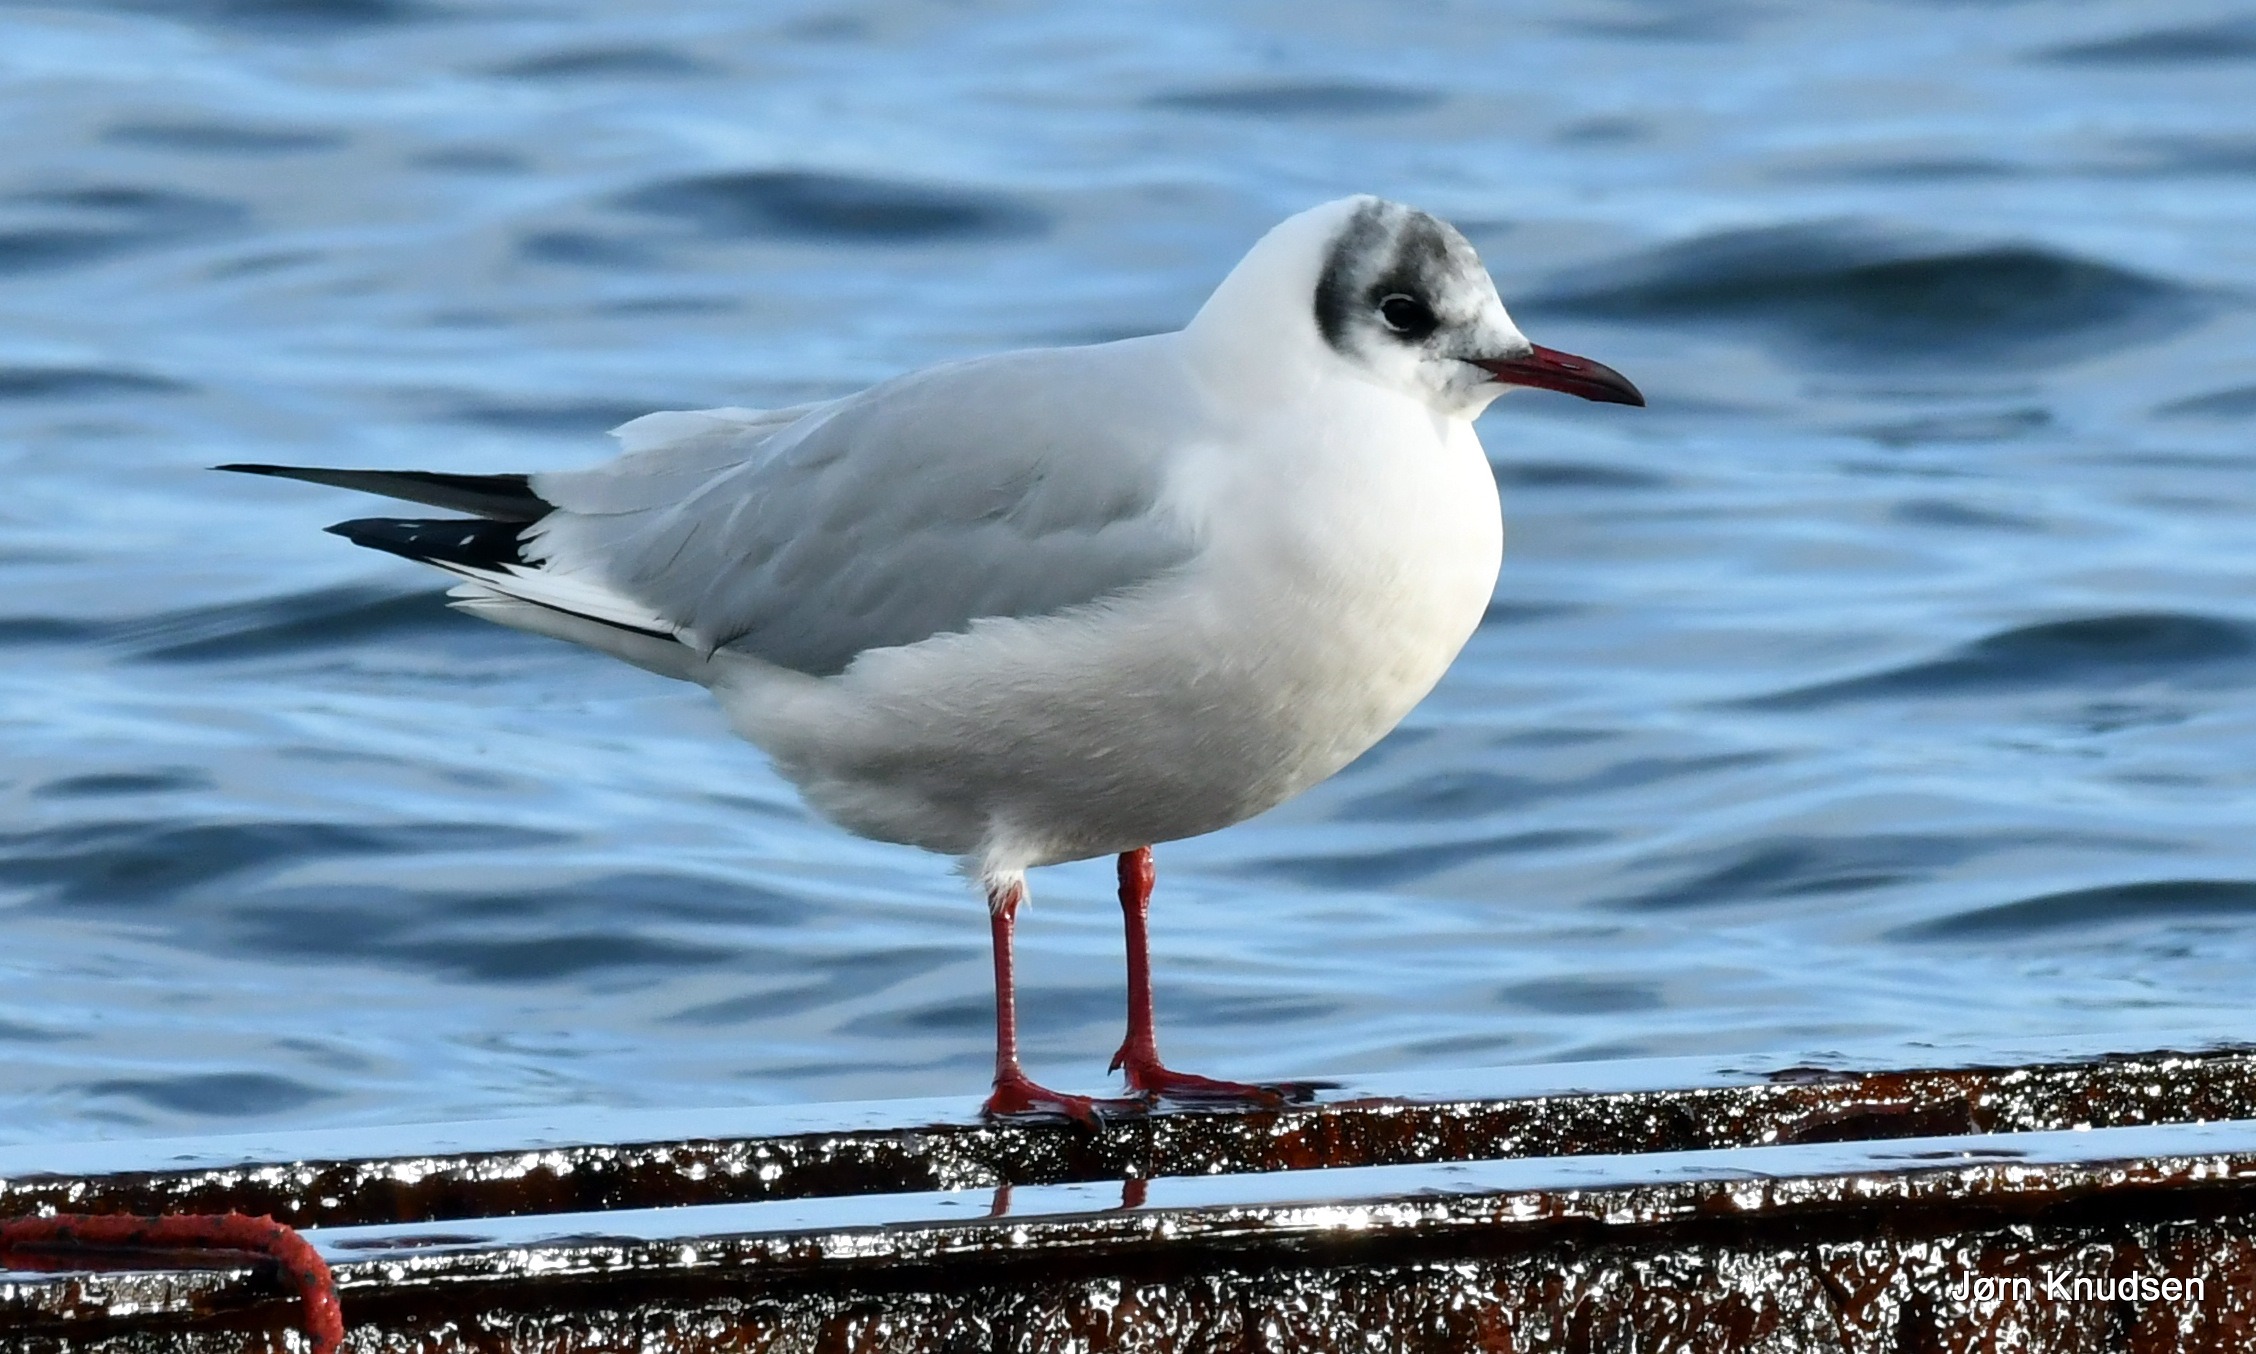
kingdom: Animalia
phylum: Chordata
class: Aves
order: Charadriiformes
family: Laridae
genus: Chroicocephalus
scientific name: Chroicocephalus ridibundus
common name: Hættemåge
